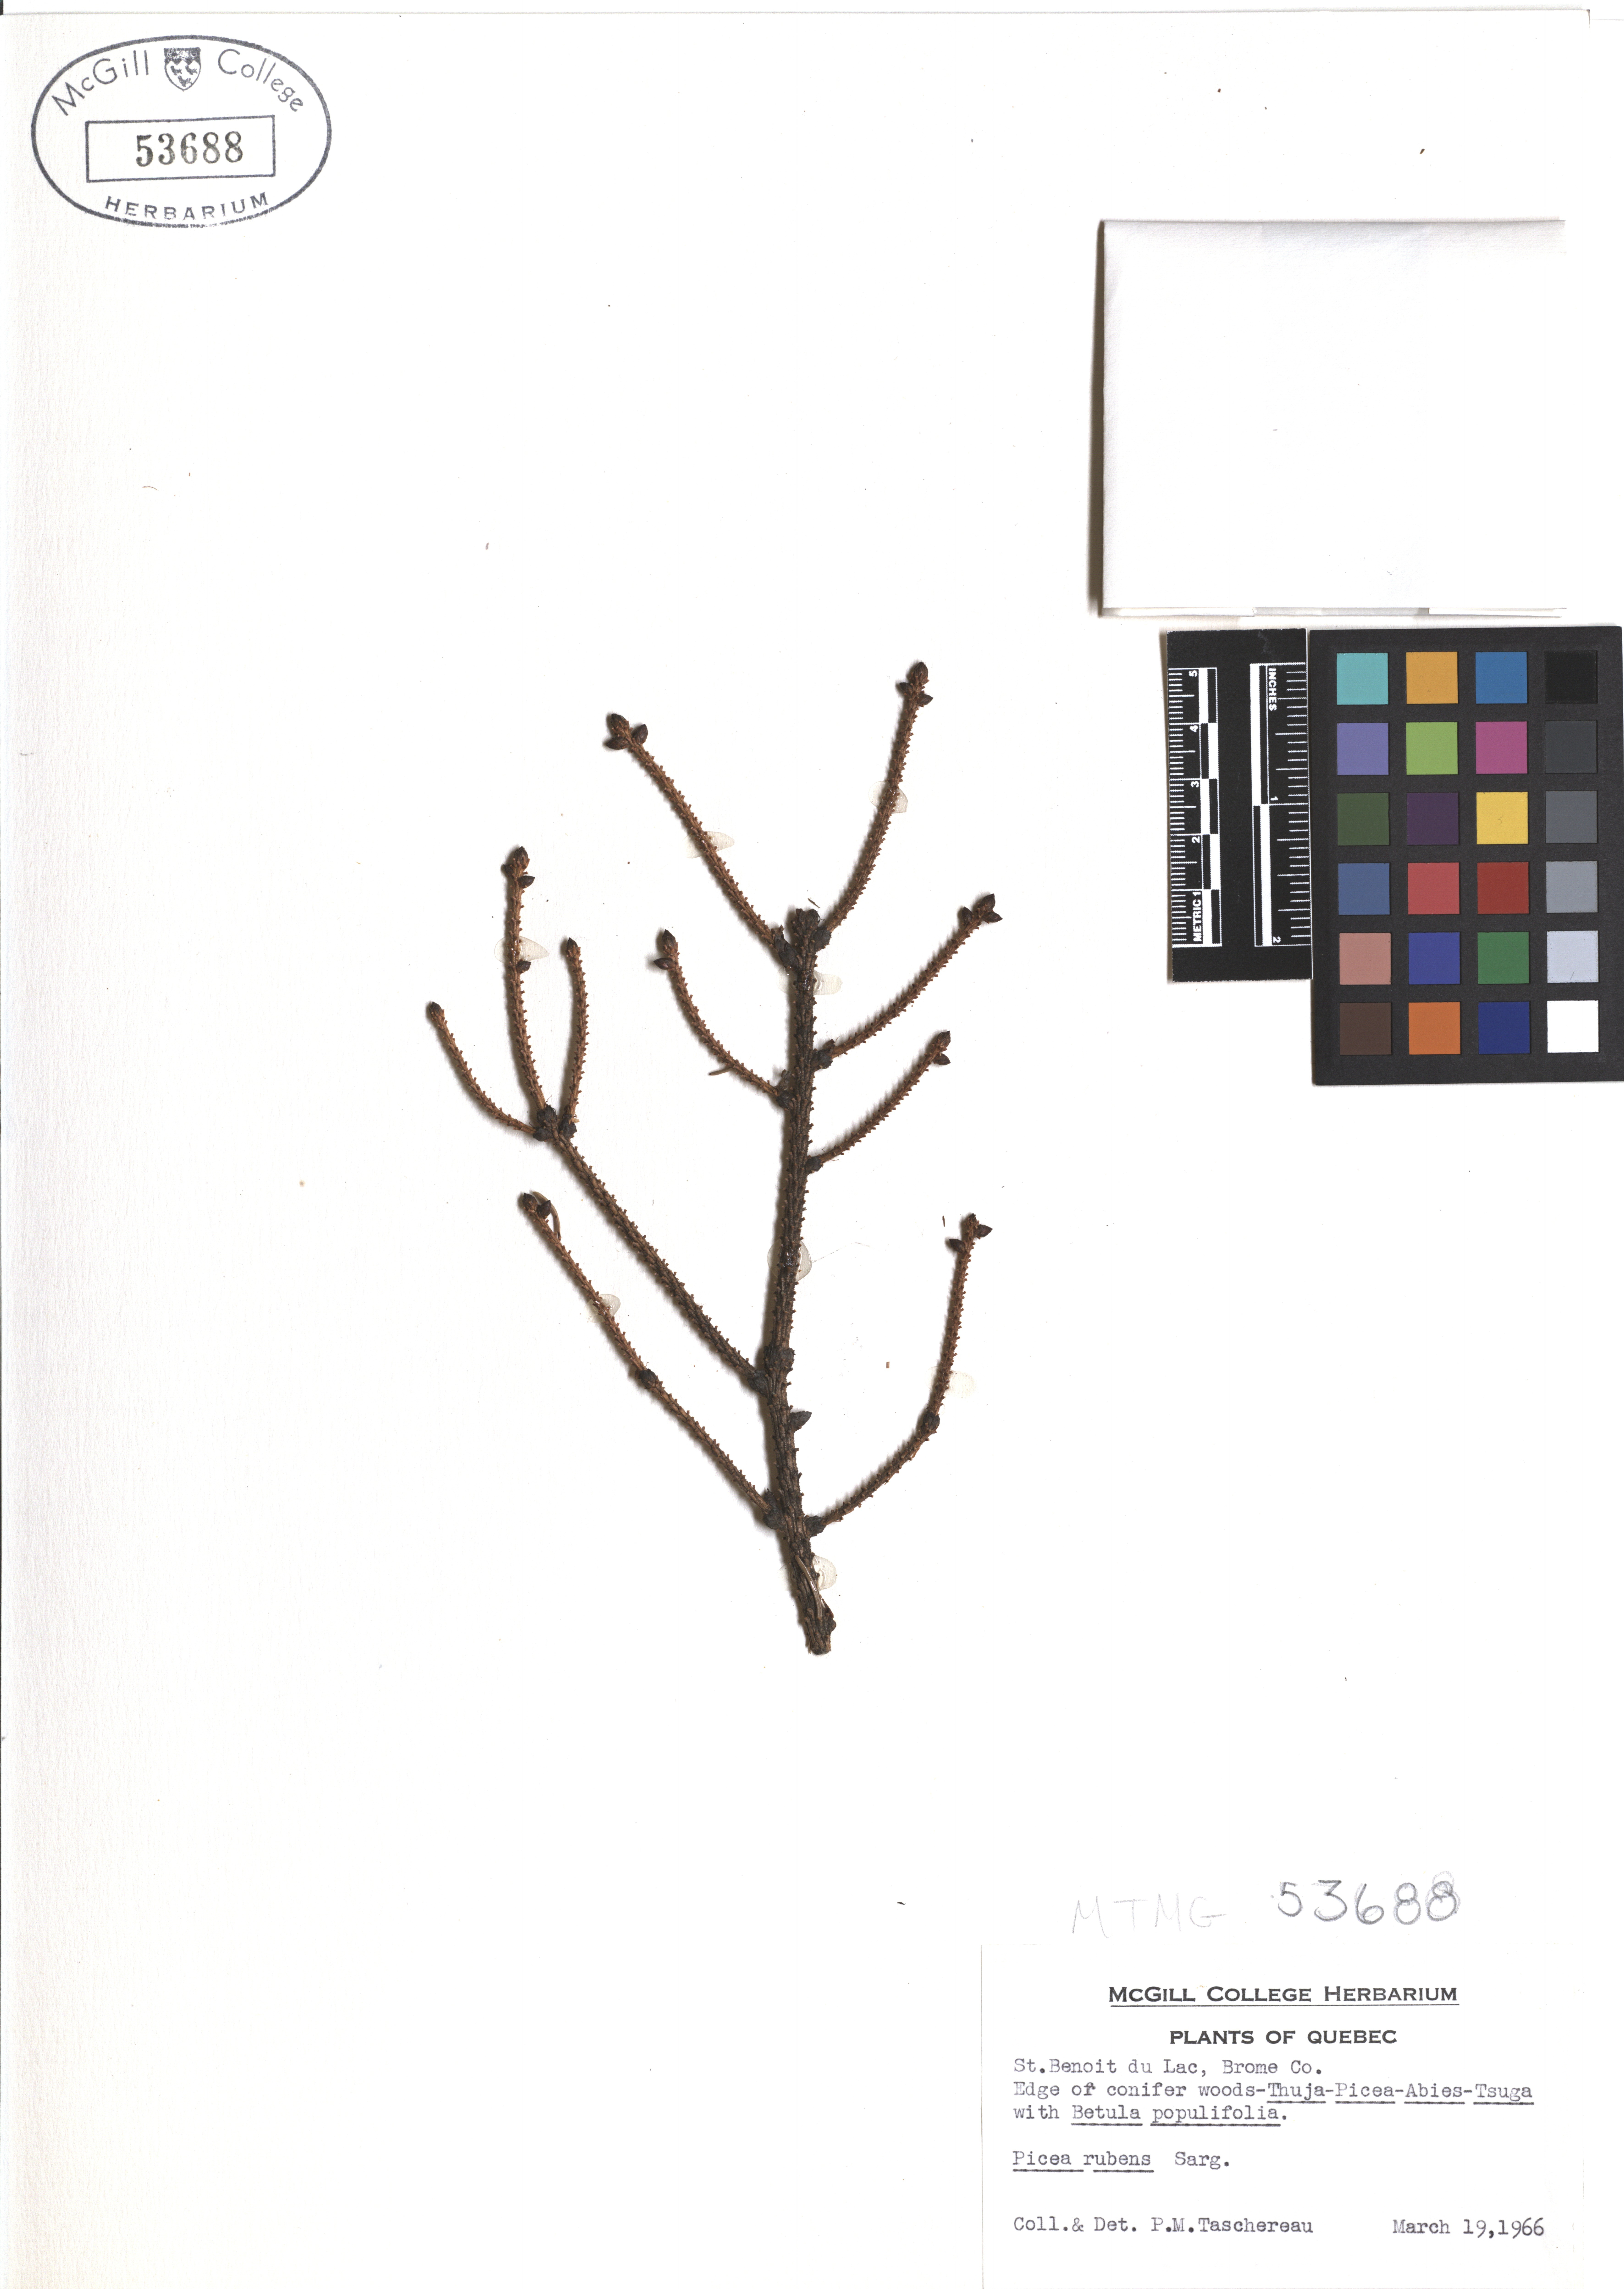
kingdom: Plantae
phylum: Tracheophyta
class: Pinopsida
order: Pinales
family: Pinaceae
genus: Picea
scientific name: Picea rubens
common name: Red spruce
